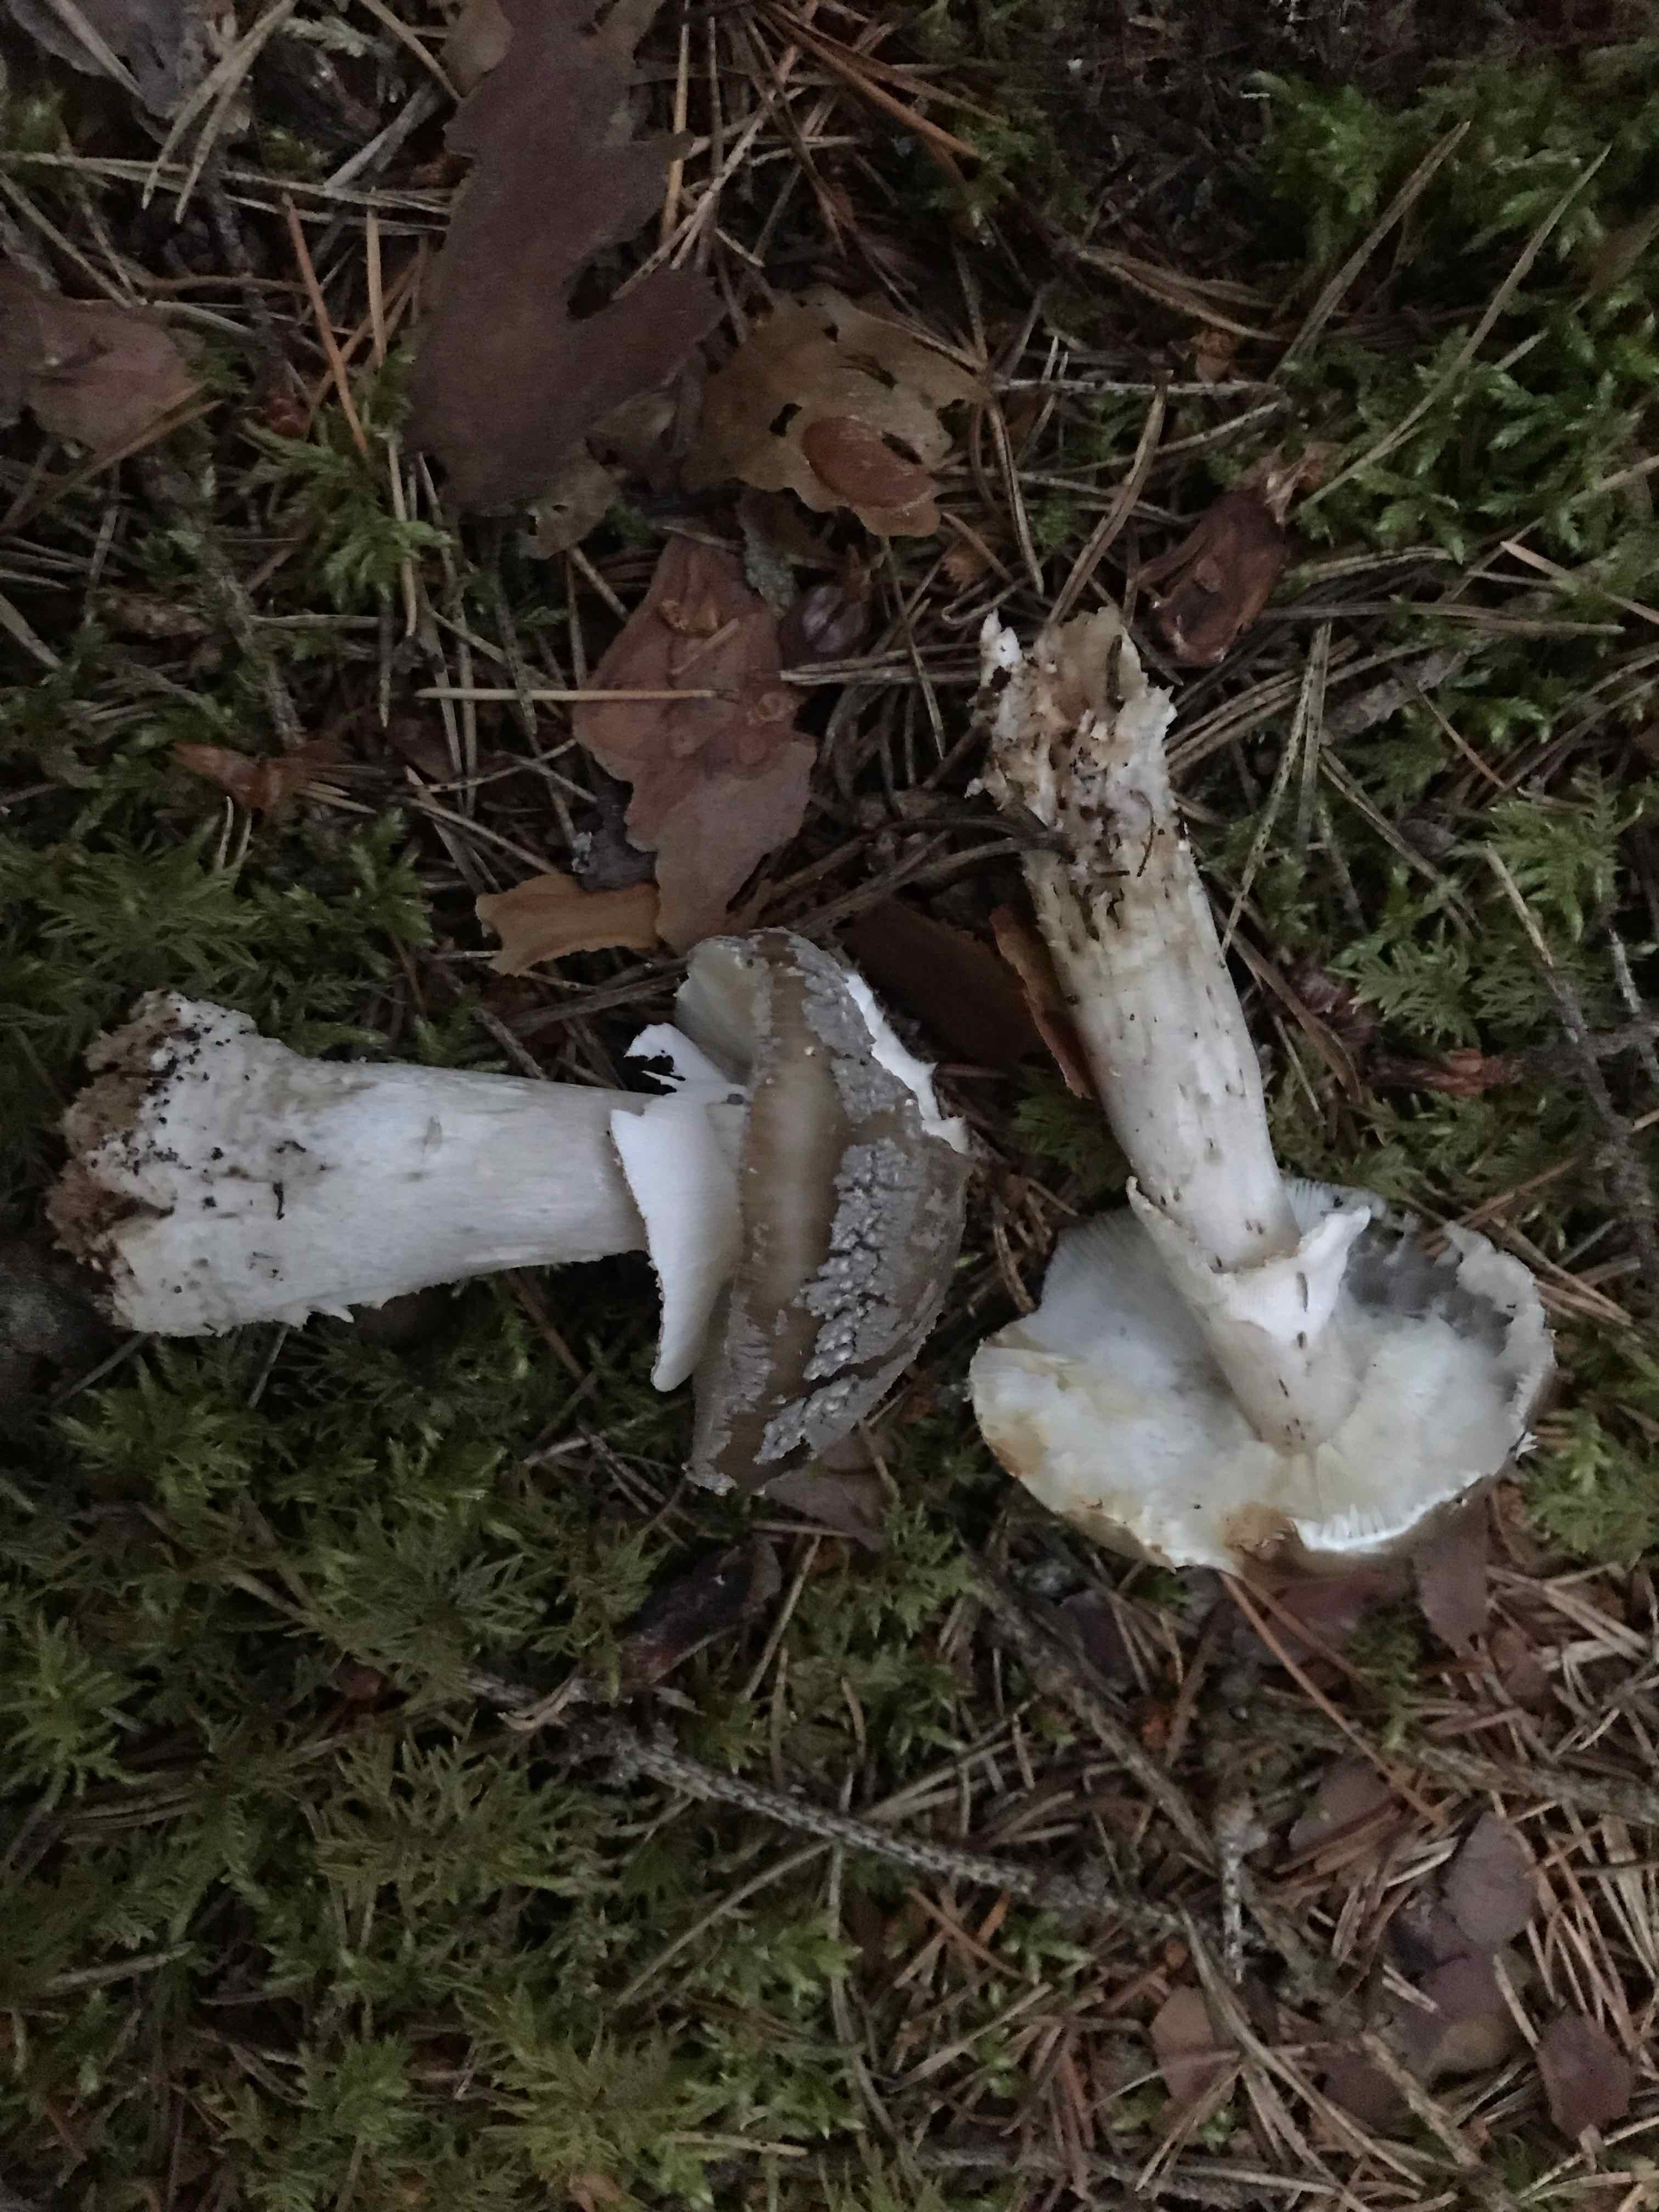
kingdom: Fungi
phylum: Basidiomycota
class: Agaricomycetes
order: Agaricales
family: Amanitaceae
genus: Amanita
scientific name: Amanita
